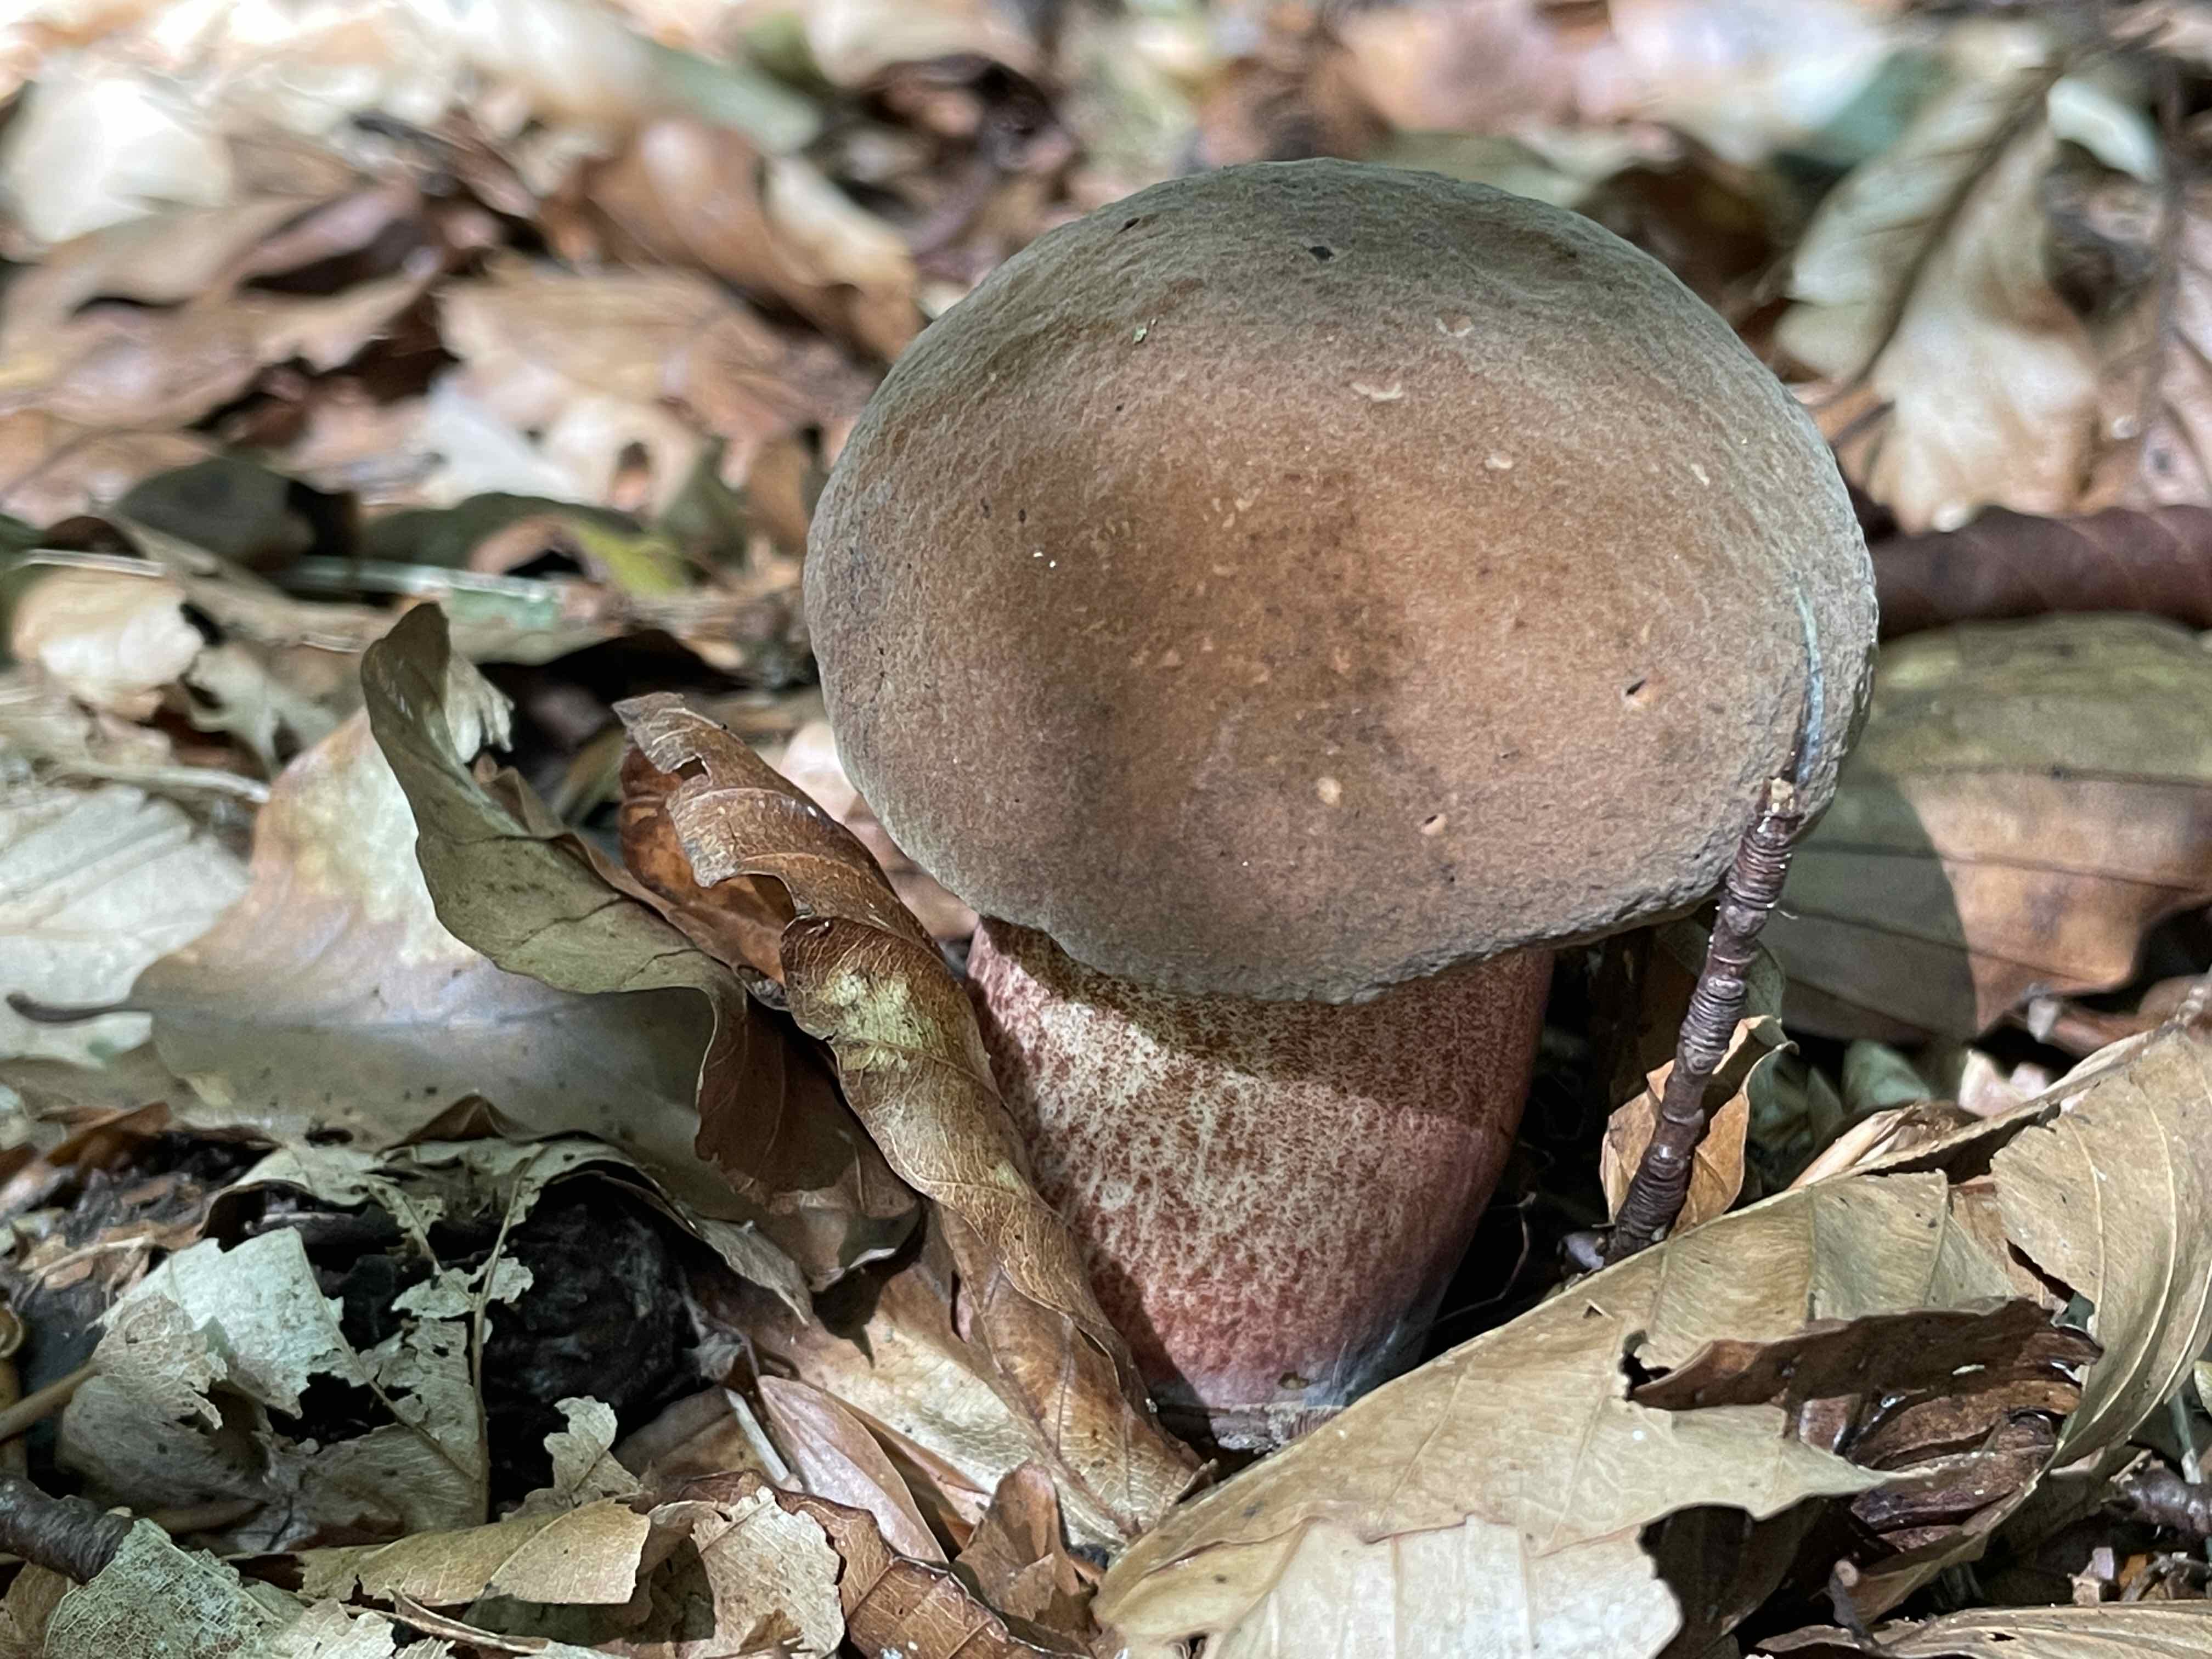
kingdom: Fungi
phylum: Basidiomycota
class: Agaricomycetes
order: Boletales
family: Boletaceae
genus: Neoboletus
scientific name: Neoboletus erythropus
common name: punktstokket indigorørhat
